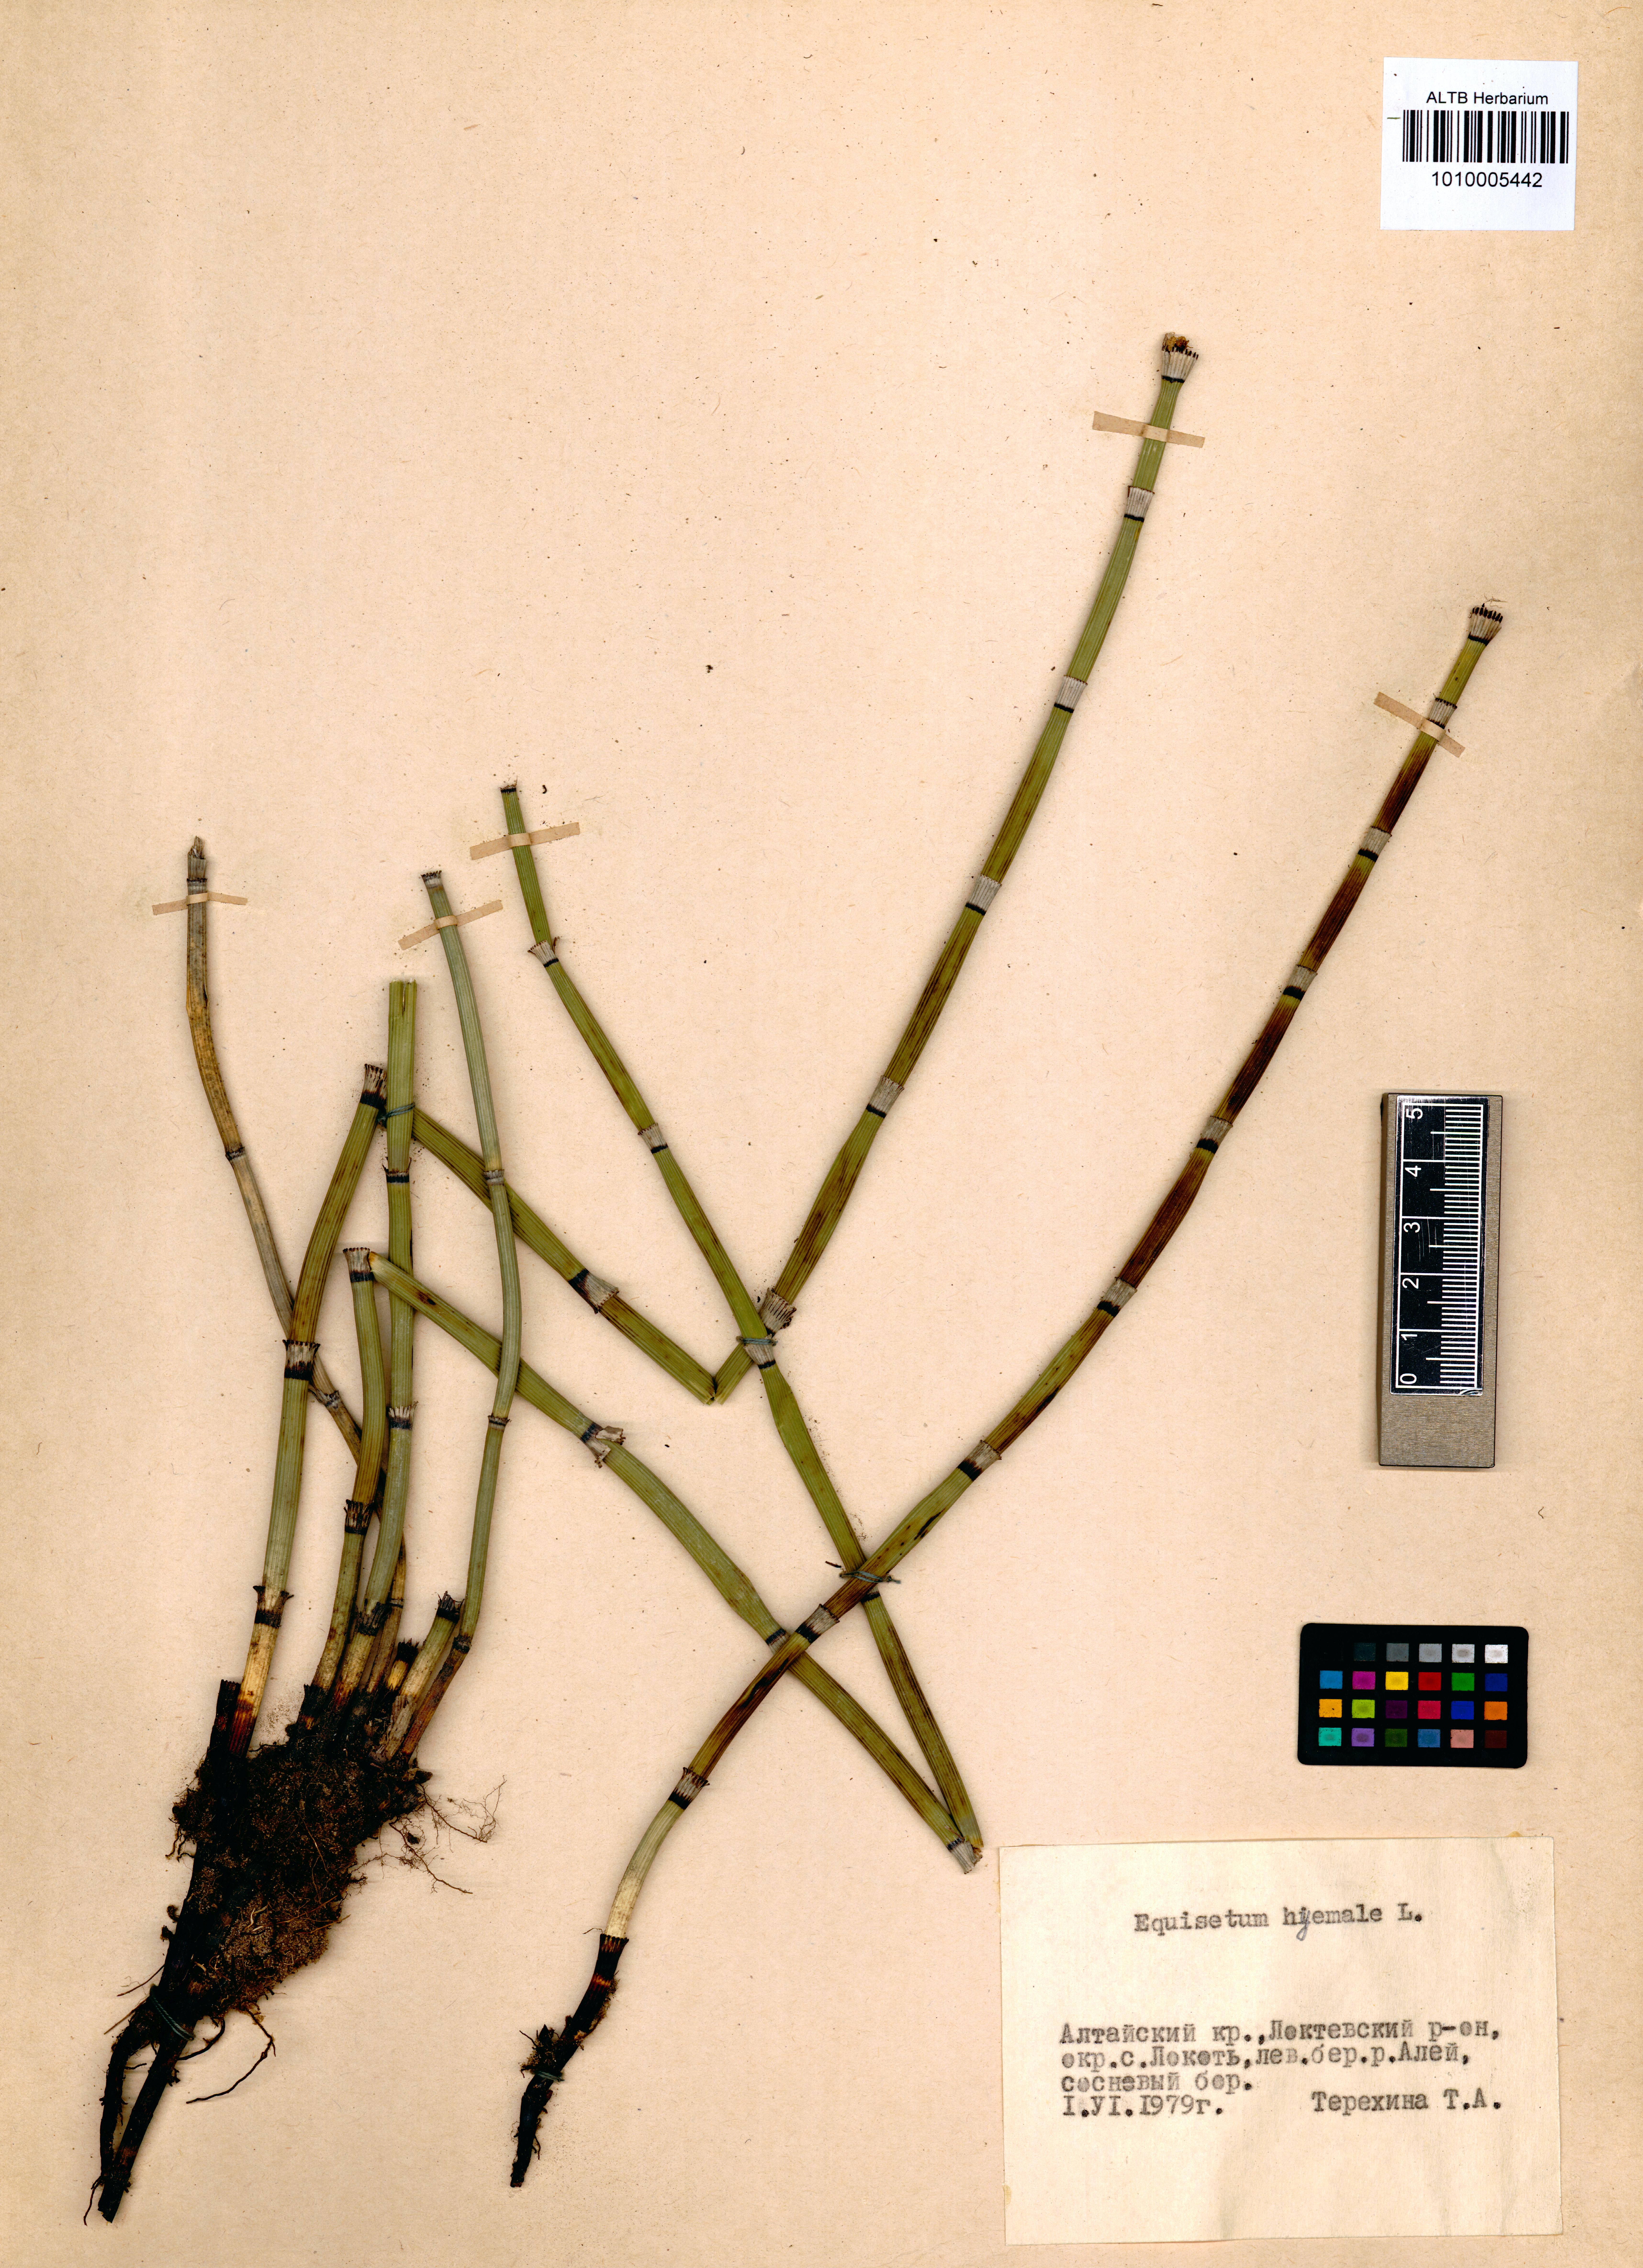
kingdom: Plantae
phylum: Tracheophyta
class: Polypodiopsida
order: Equisetales
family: Equisetaceae
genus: Equisetum
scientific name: Equisetum hyemale
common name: Rough horsetail
